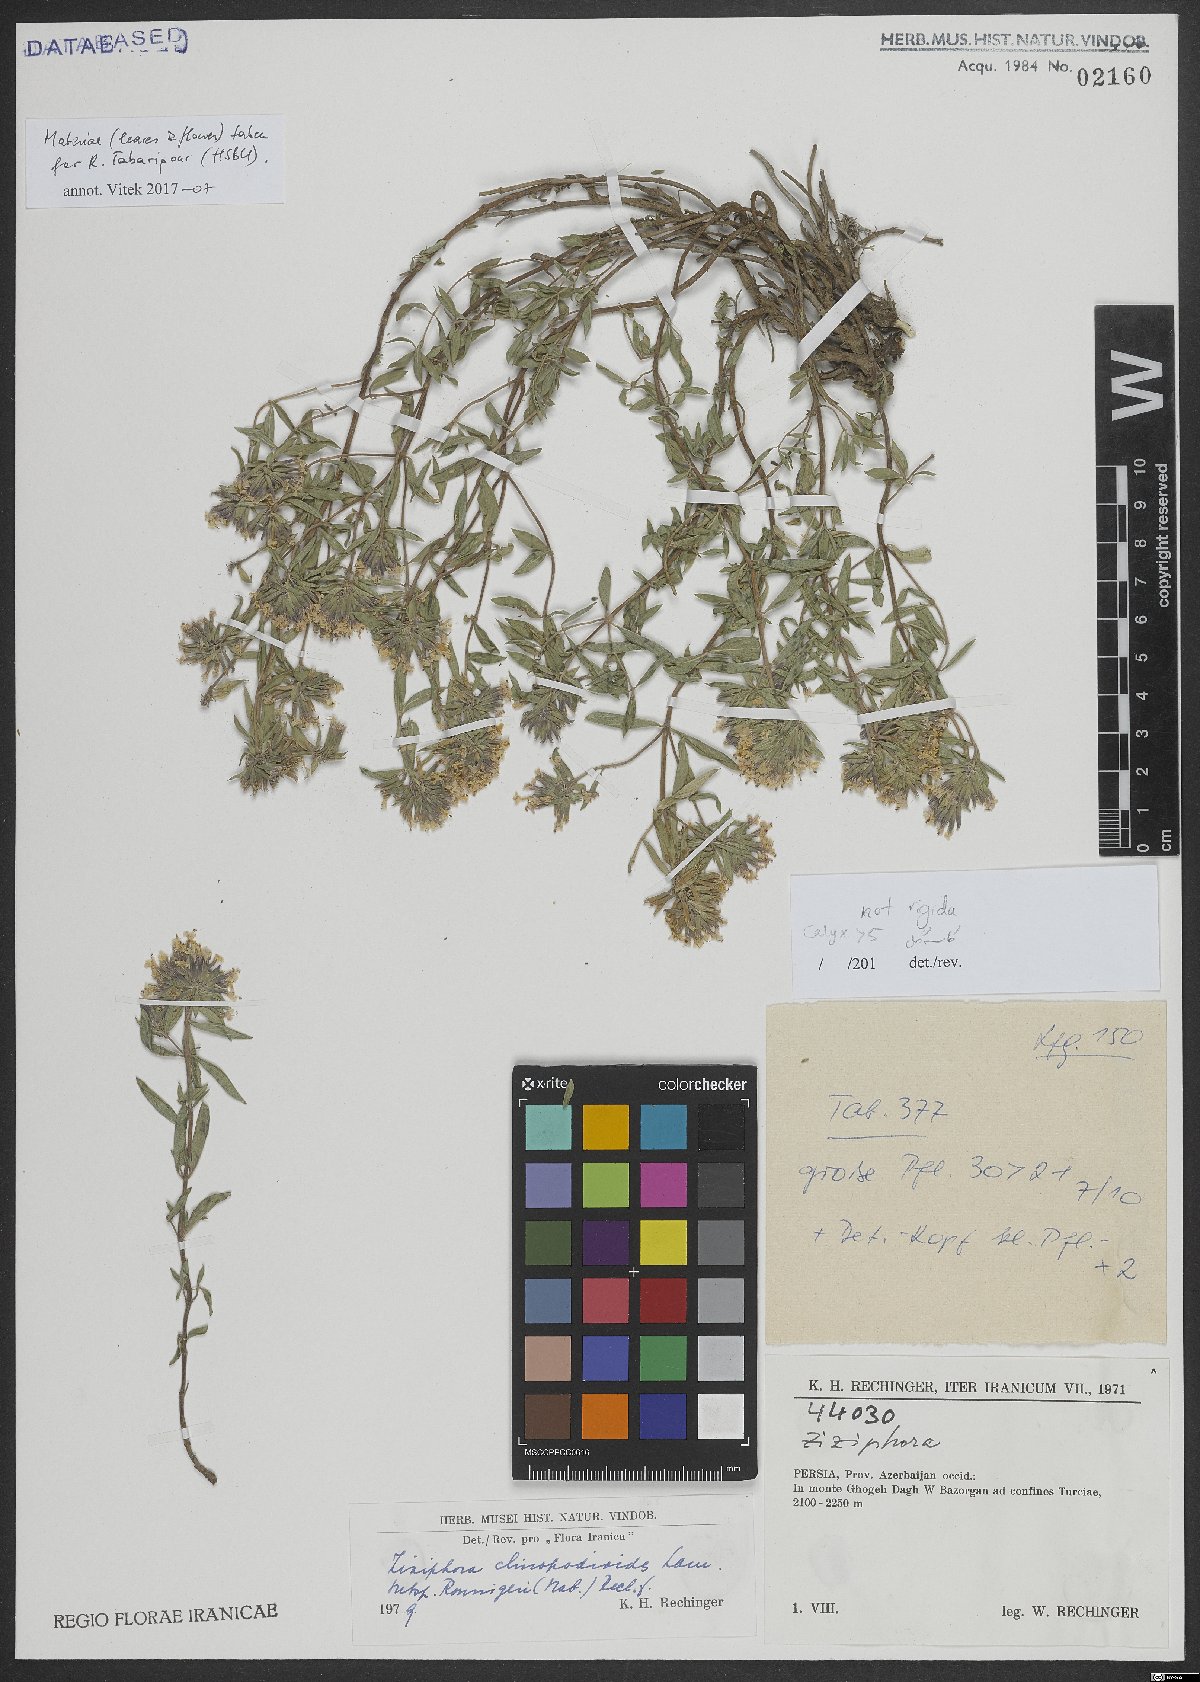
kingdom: Plantae
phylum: Tracheophyta
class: Magnoliopsida
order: Lamiales
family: Lamiaceae
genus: Ziziphora
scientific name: Ziziphora clinopodioides
